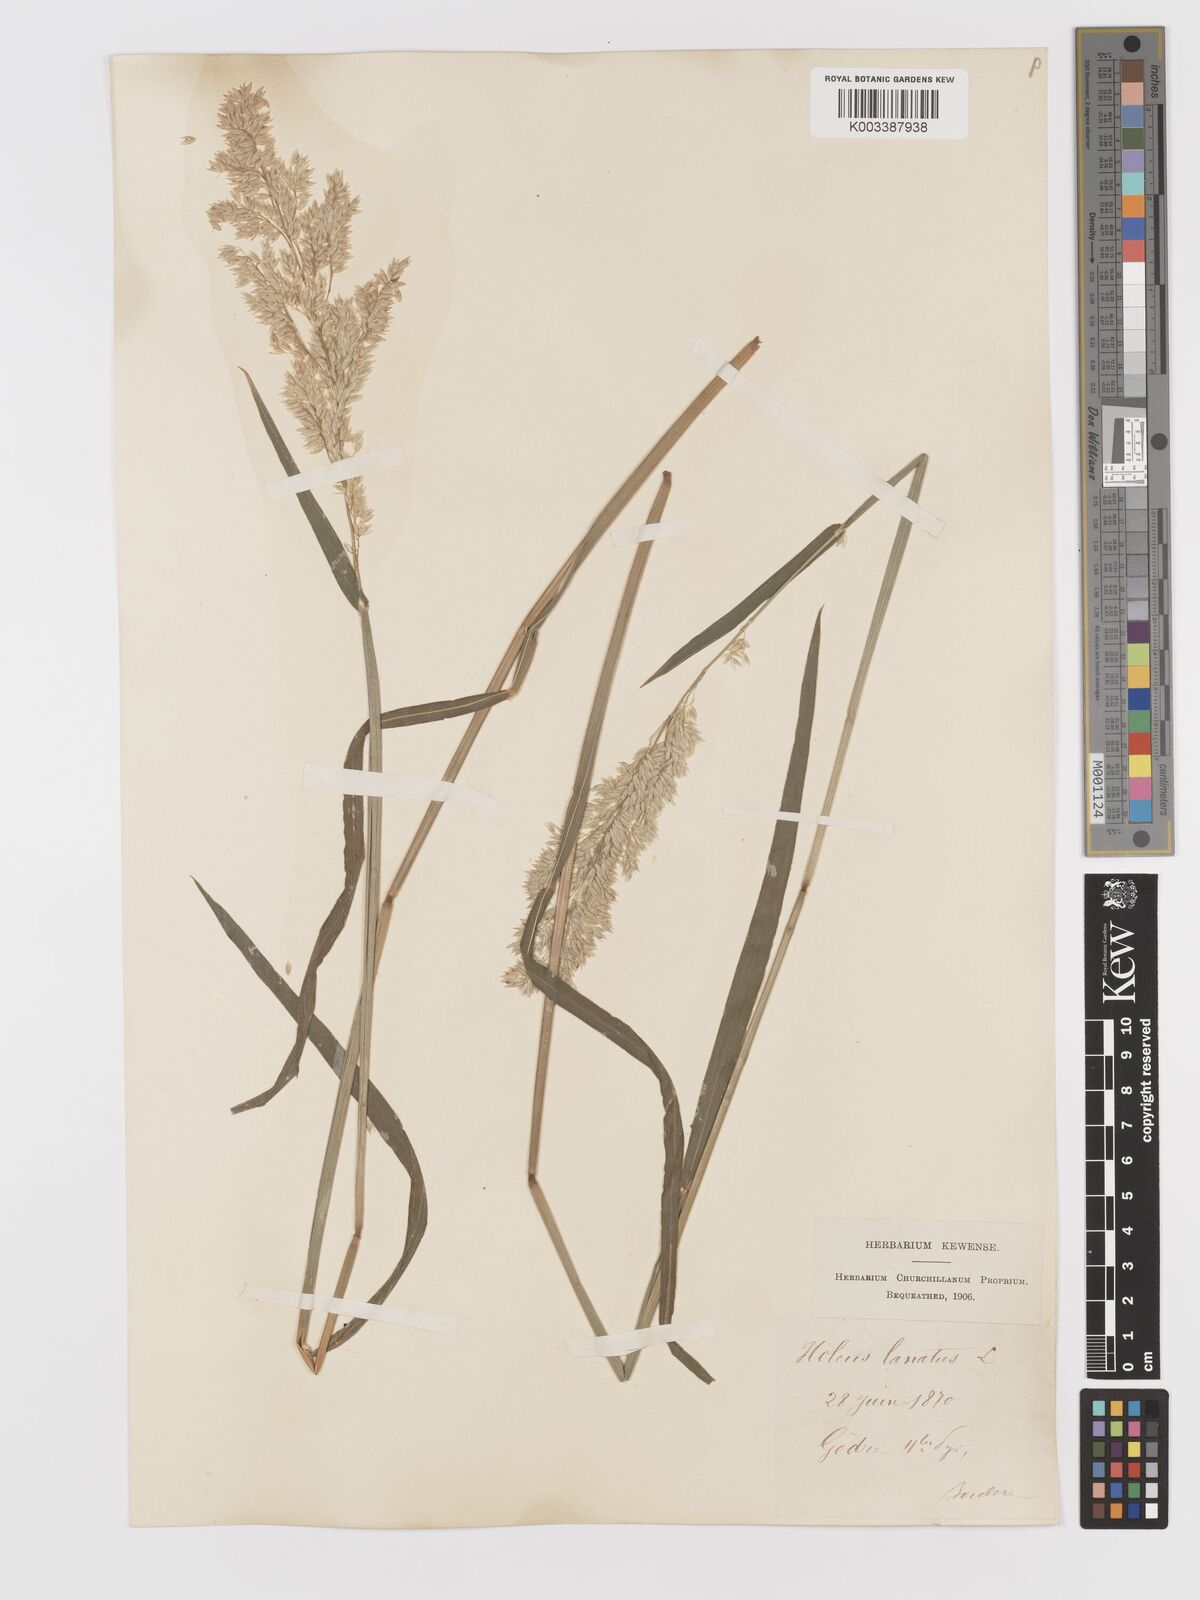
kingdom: Plantae
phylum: Tracheophyta
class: Liliopsida
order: Poales
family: Poaceae
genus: Holcus
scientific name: Holcus lanatus
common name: Yorkshire-fog
